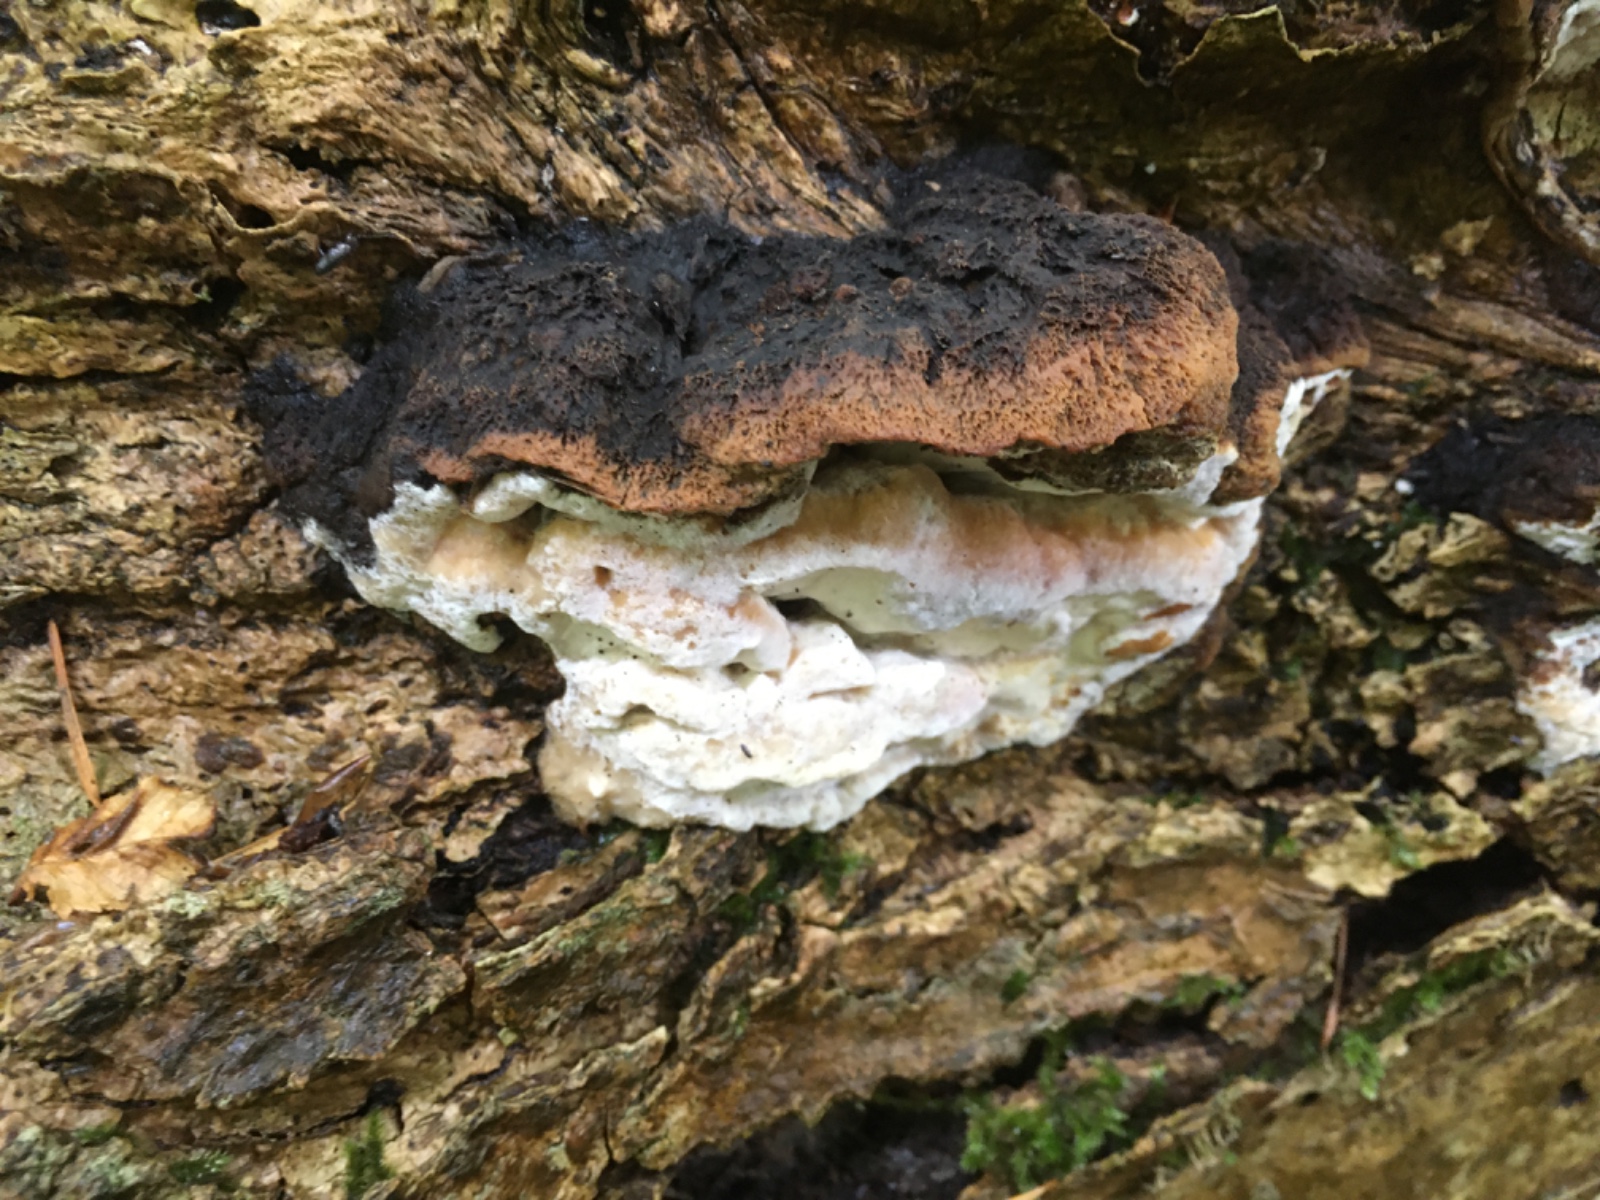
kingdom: Fungi
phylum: Basidiomycota
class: Agaricomycetes
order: Polyporales
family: Incrustoporiaceae
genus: Skeletocutis
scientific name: Skeletocutis nemoralis
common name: stor krystalporesvamp
